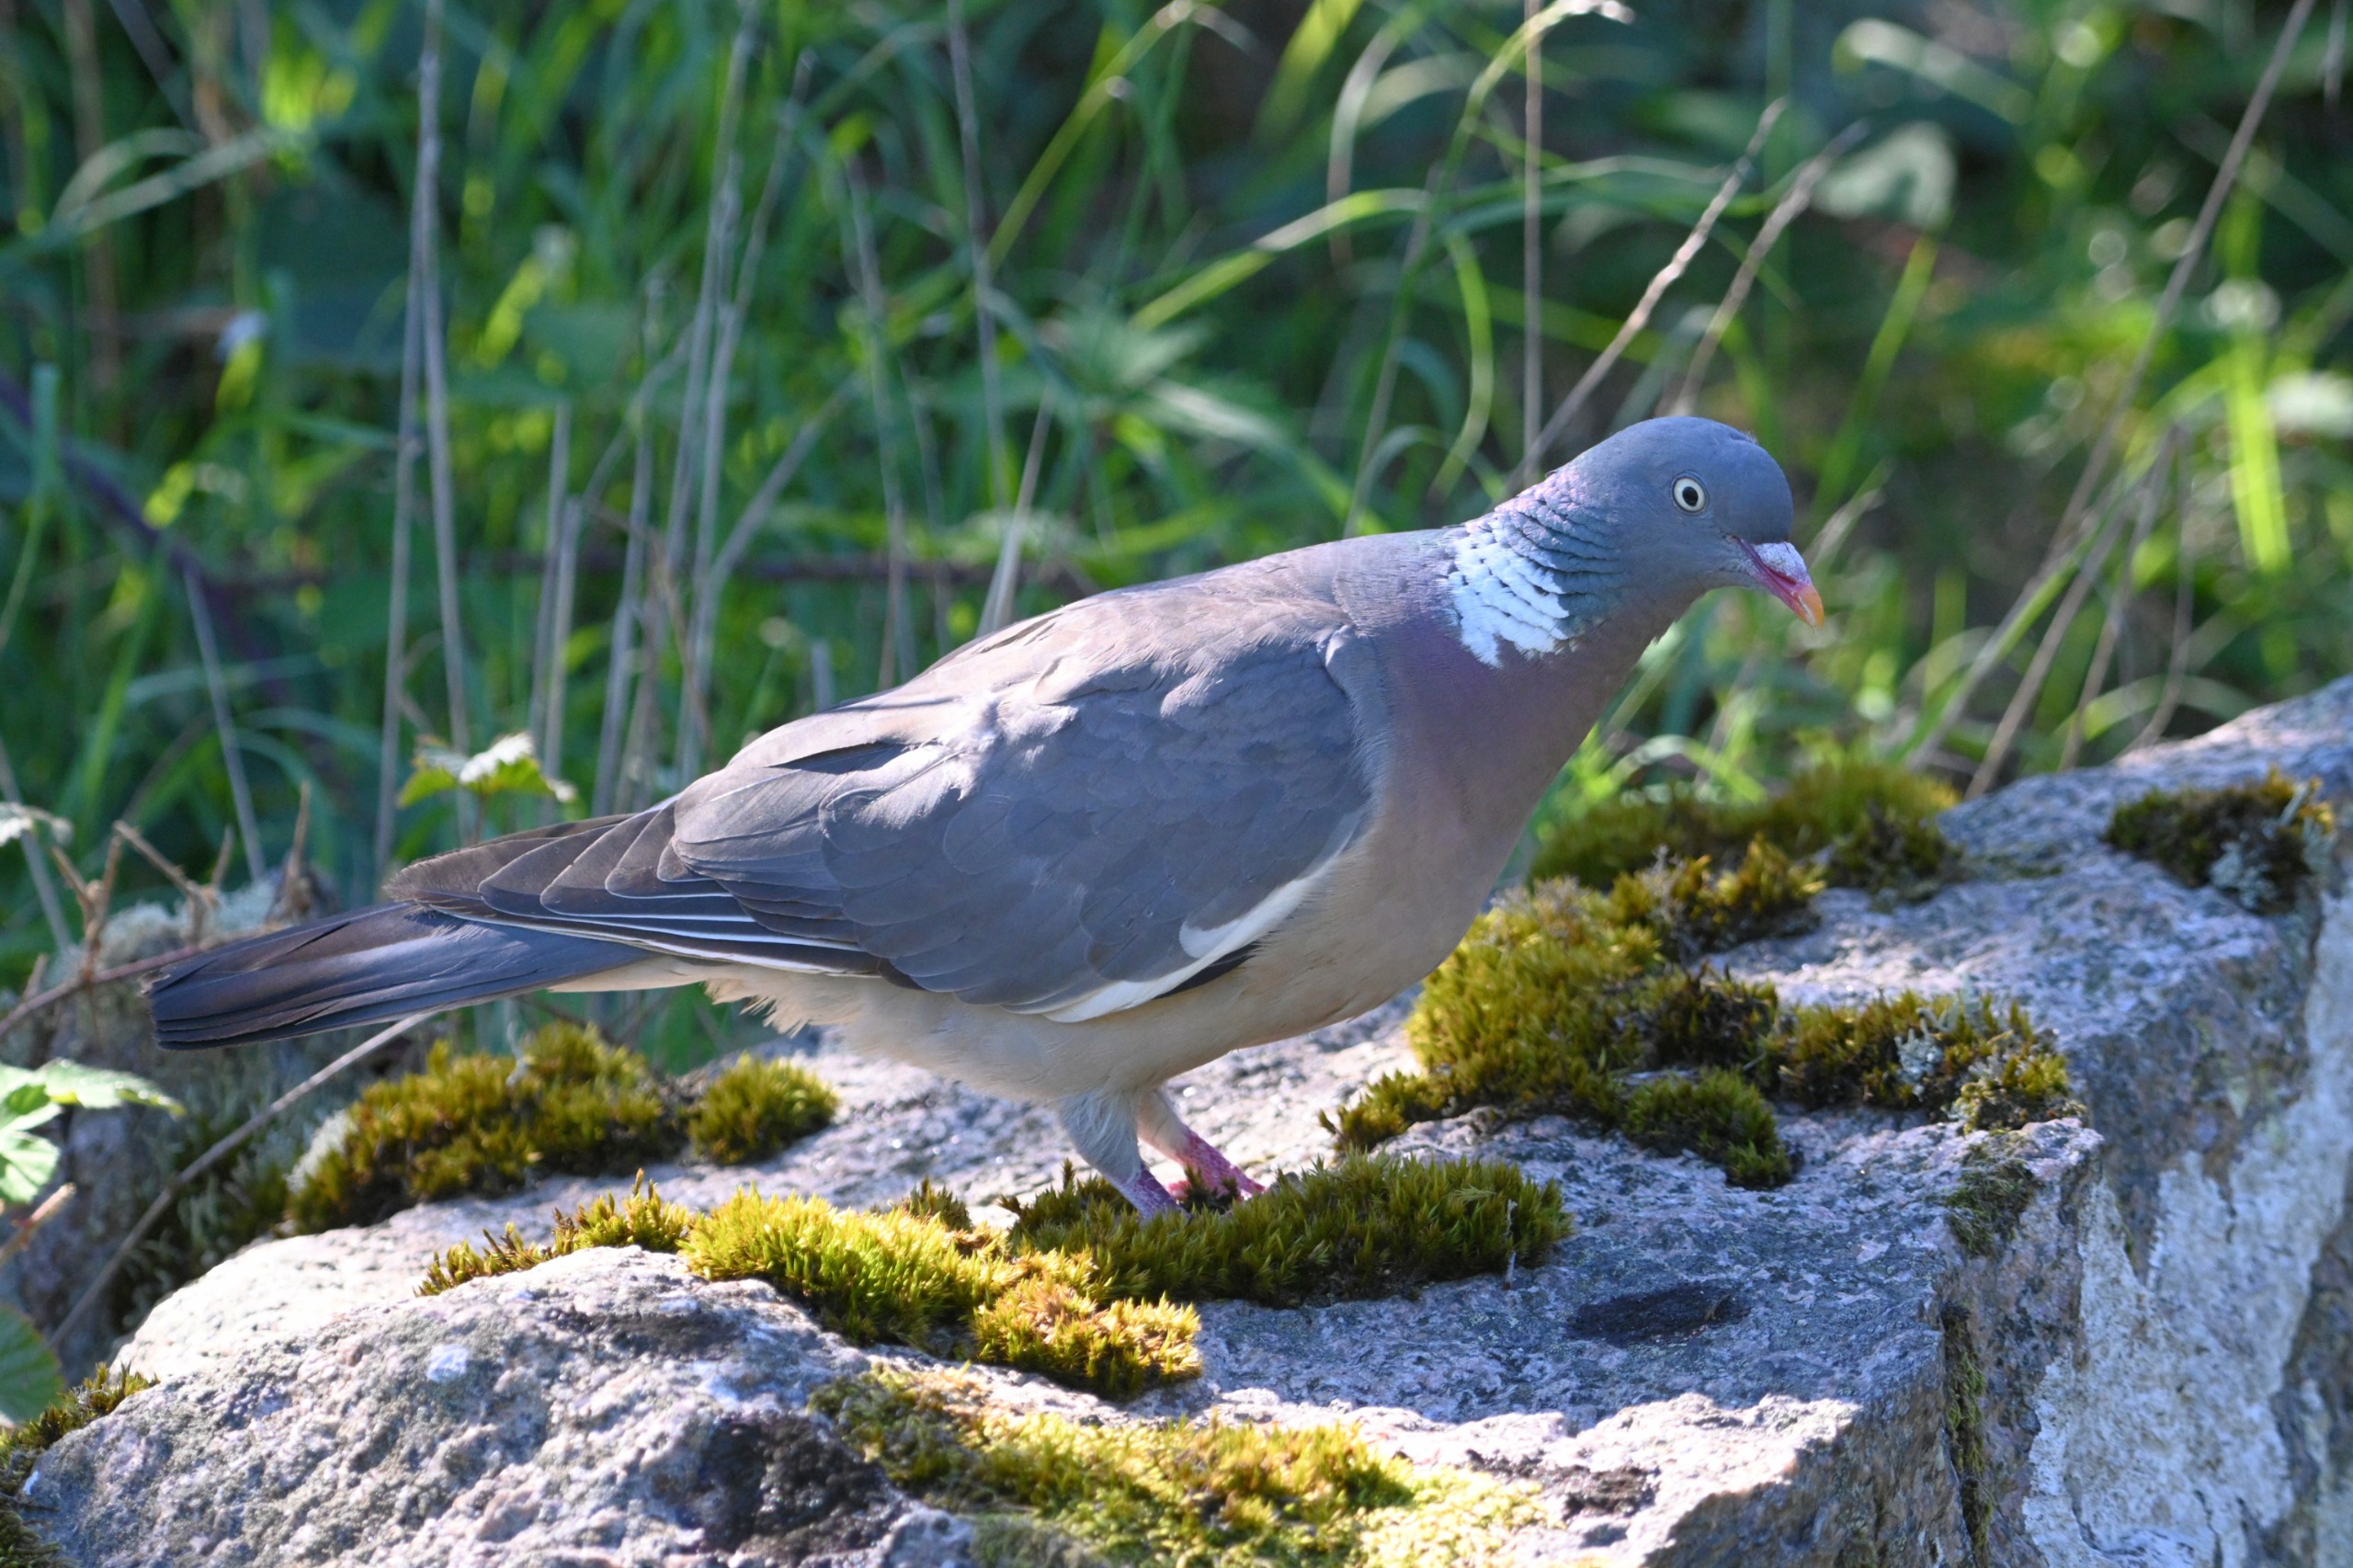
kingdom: Animalia
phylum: Chordata
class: Aves
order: Columbiformes
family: Columbidae
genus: Columba
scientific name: Columba palumbus
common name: Ringdue
